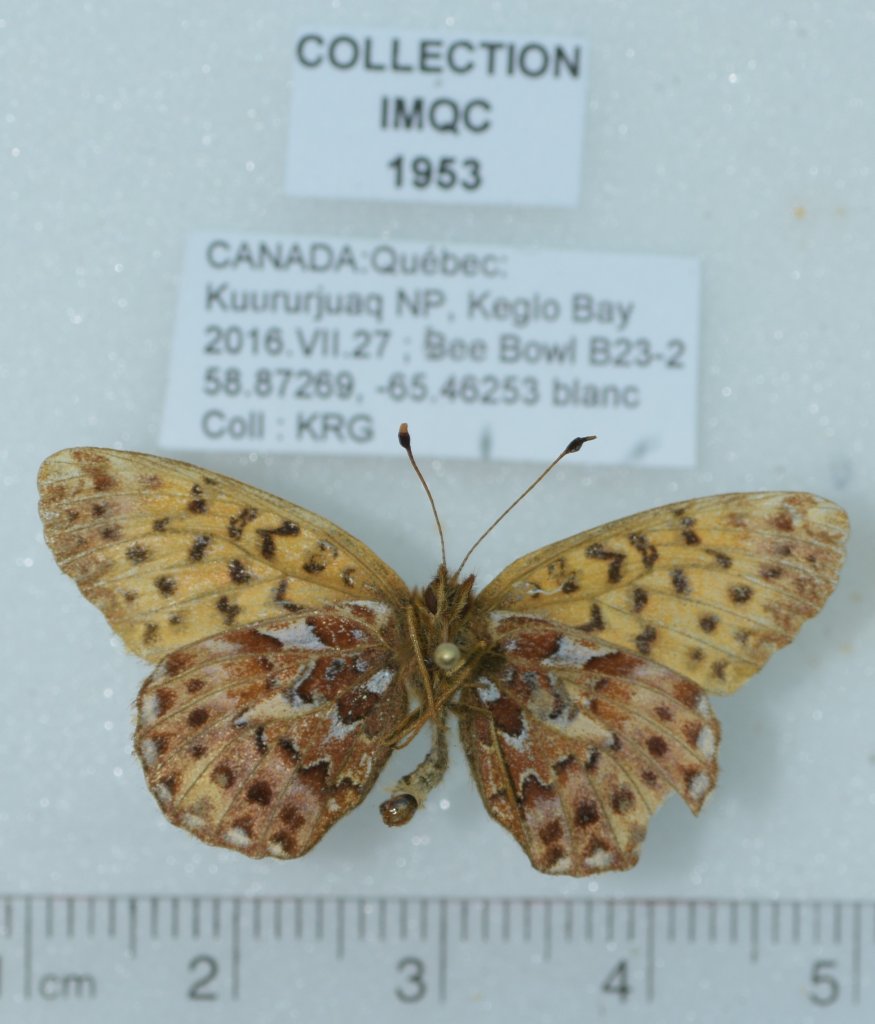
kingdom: Animalia
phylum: Arthropoda
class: Insecta
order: Lepidoptera
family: Nymphalidae
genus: Boloria
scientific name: Boloria chariclea
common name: Arctic Fritillary
